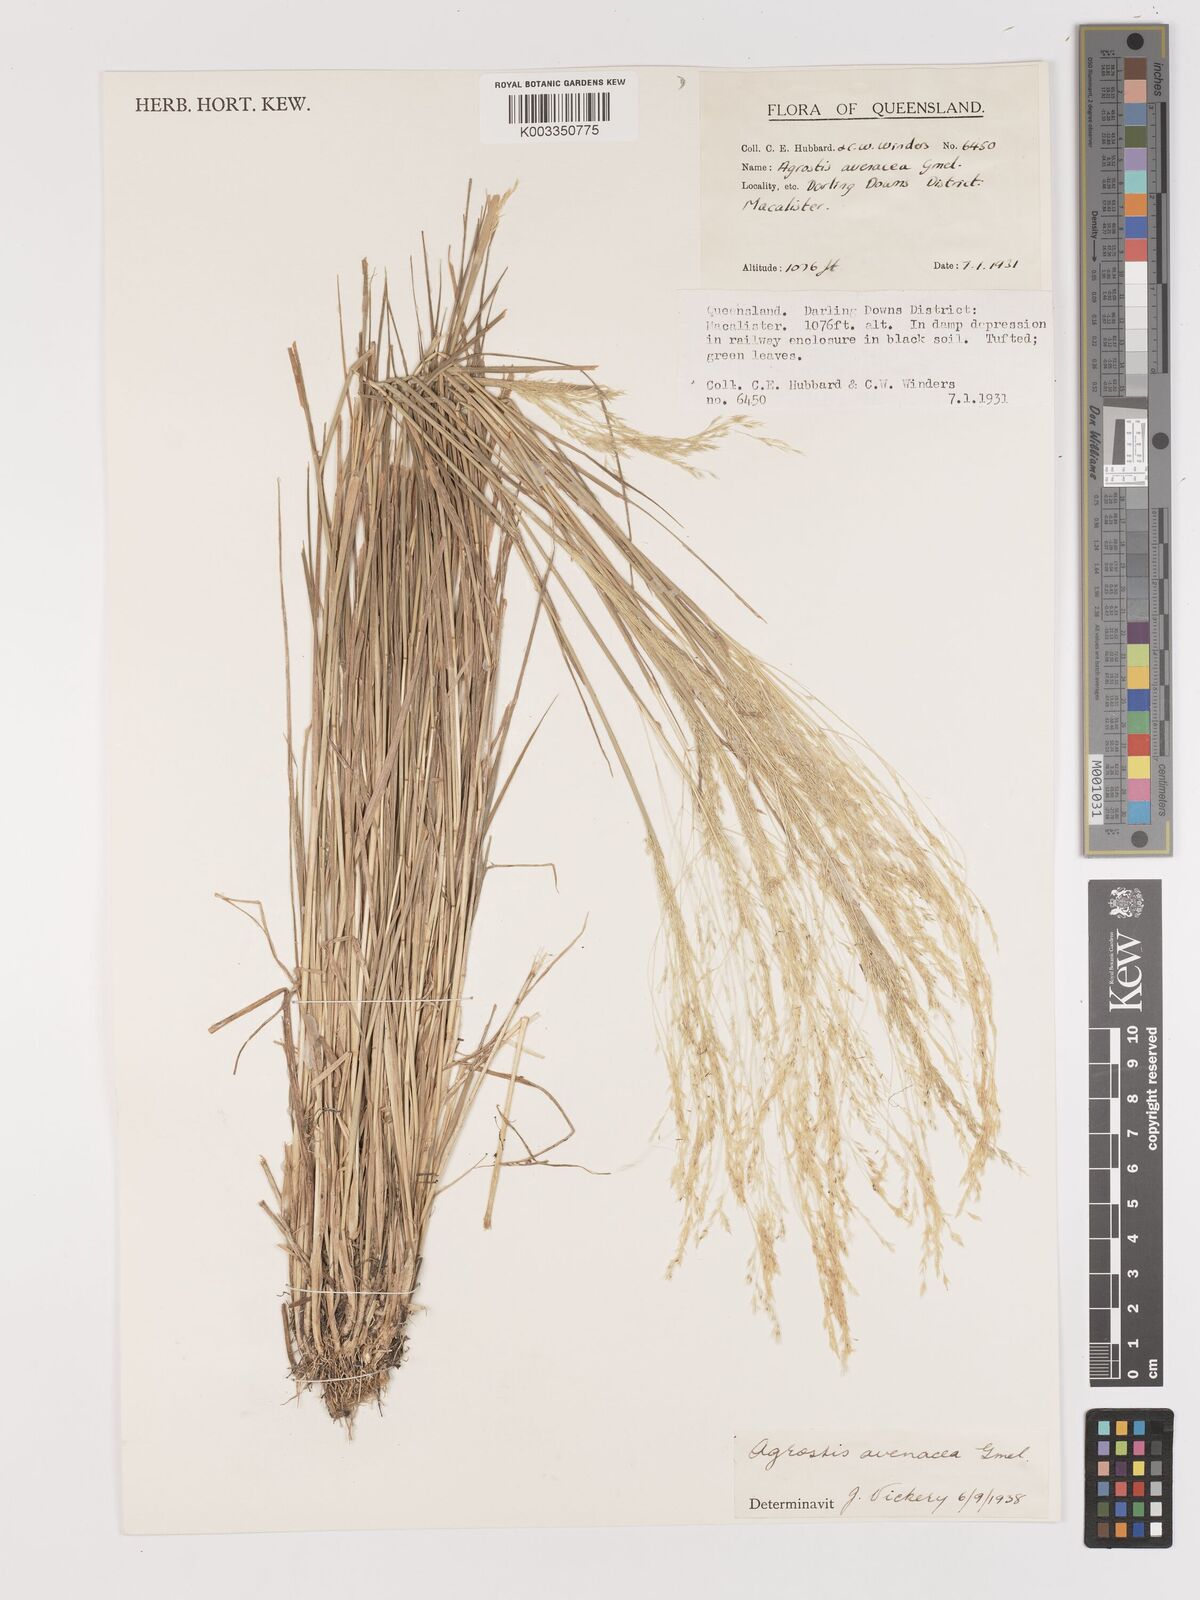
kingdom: Plantae
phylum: Tracheophyta
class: Liliopsida
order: Poales
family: Poaceae
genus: Lachnagrostis
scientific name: Lachnagrostis filiformis
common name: Bentgrass
